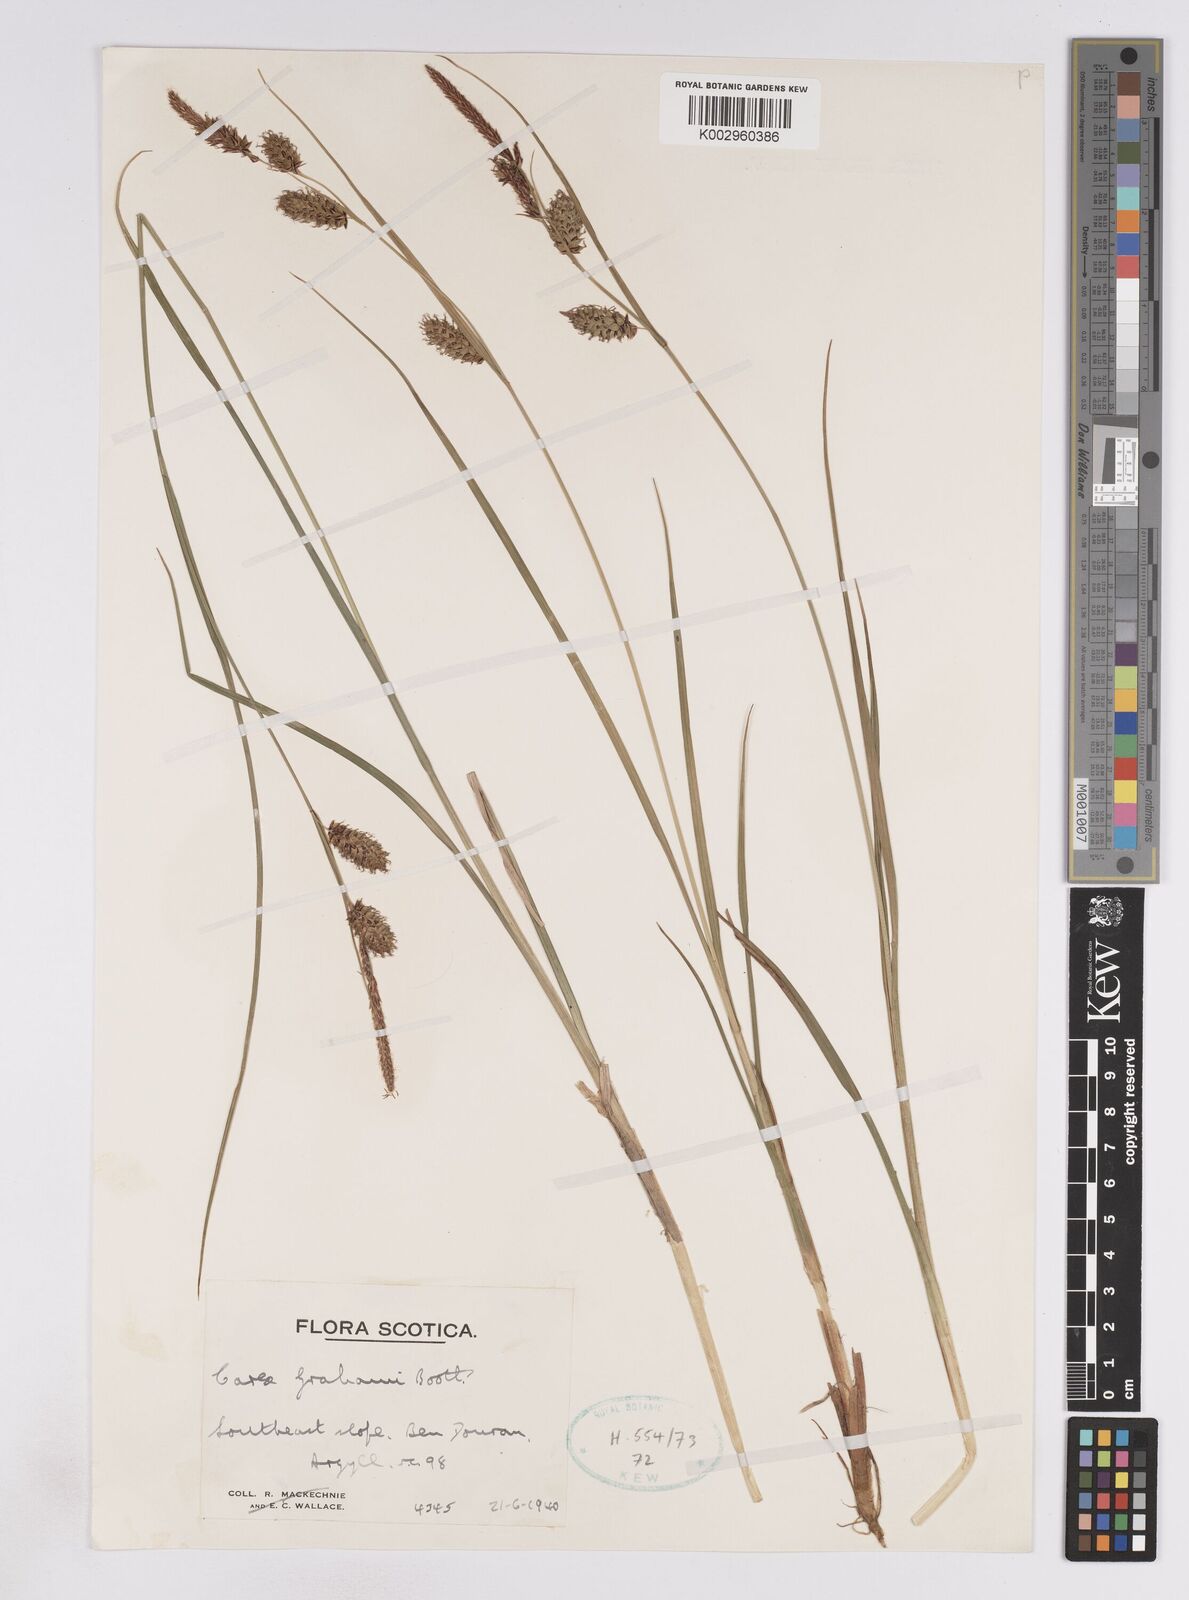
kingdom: Plantae
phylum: Tracheophyta
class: Liliopsida
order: Poales
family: Cyperaceae
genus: Carex
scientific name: Carex rostrata
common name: Bottle sedge
